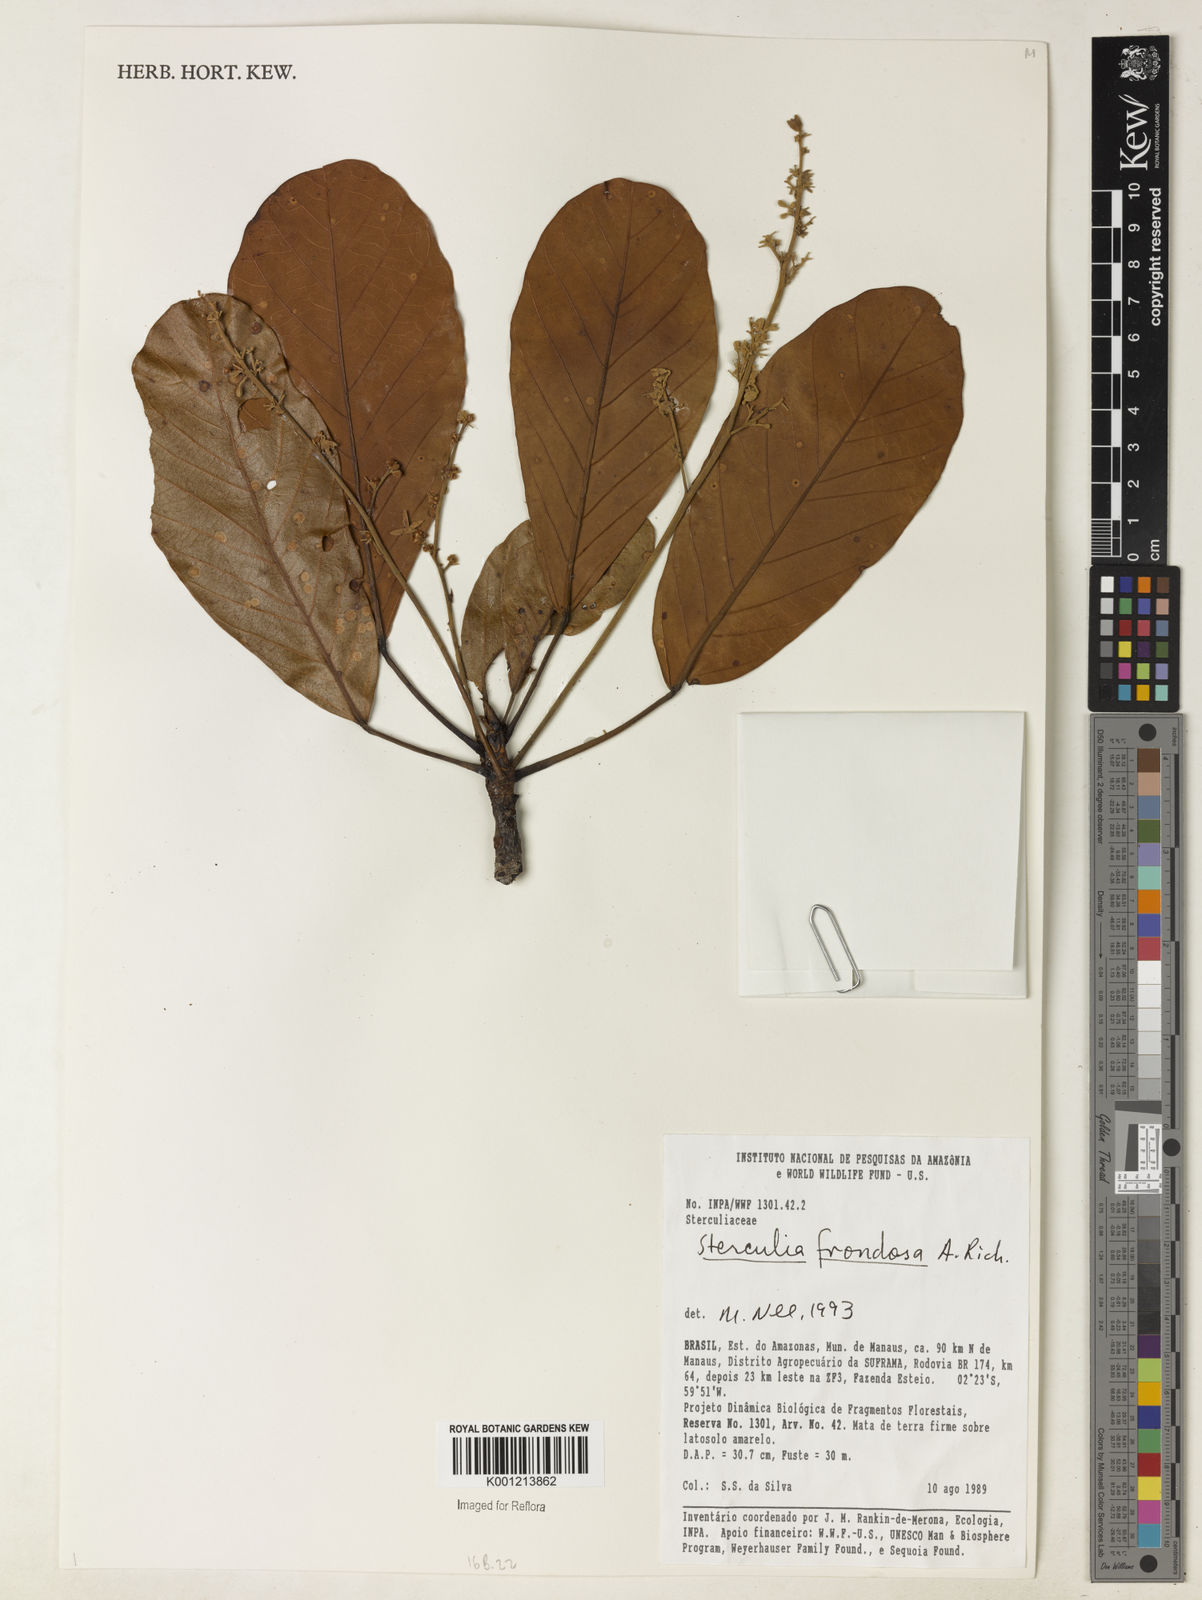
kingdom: Plantae
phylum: Tracheophyta
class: Magnoliopsida
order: Malvales
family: Malvaceae
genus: Sterculia
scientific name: Sterculia frondosa
